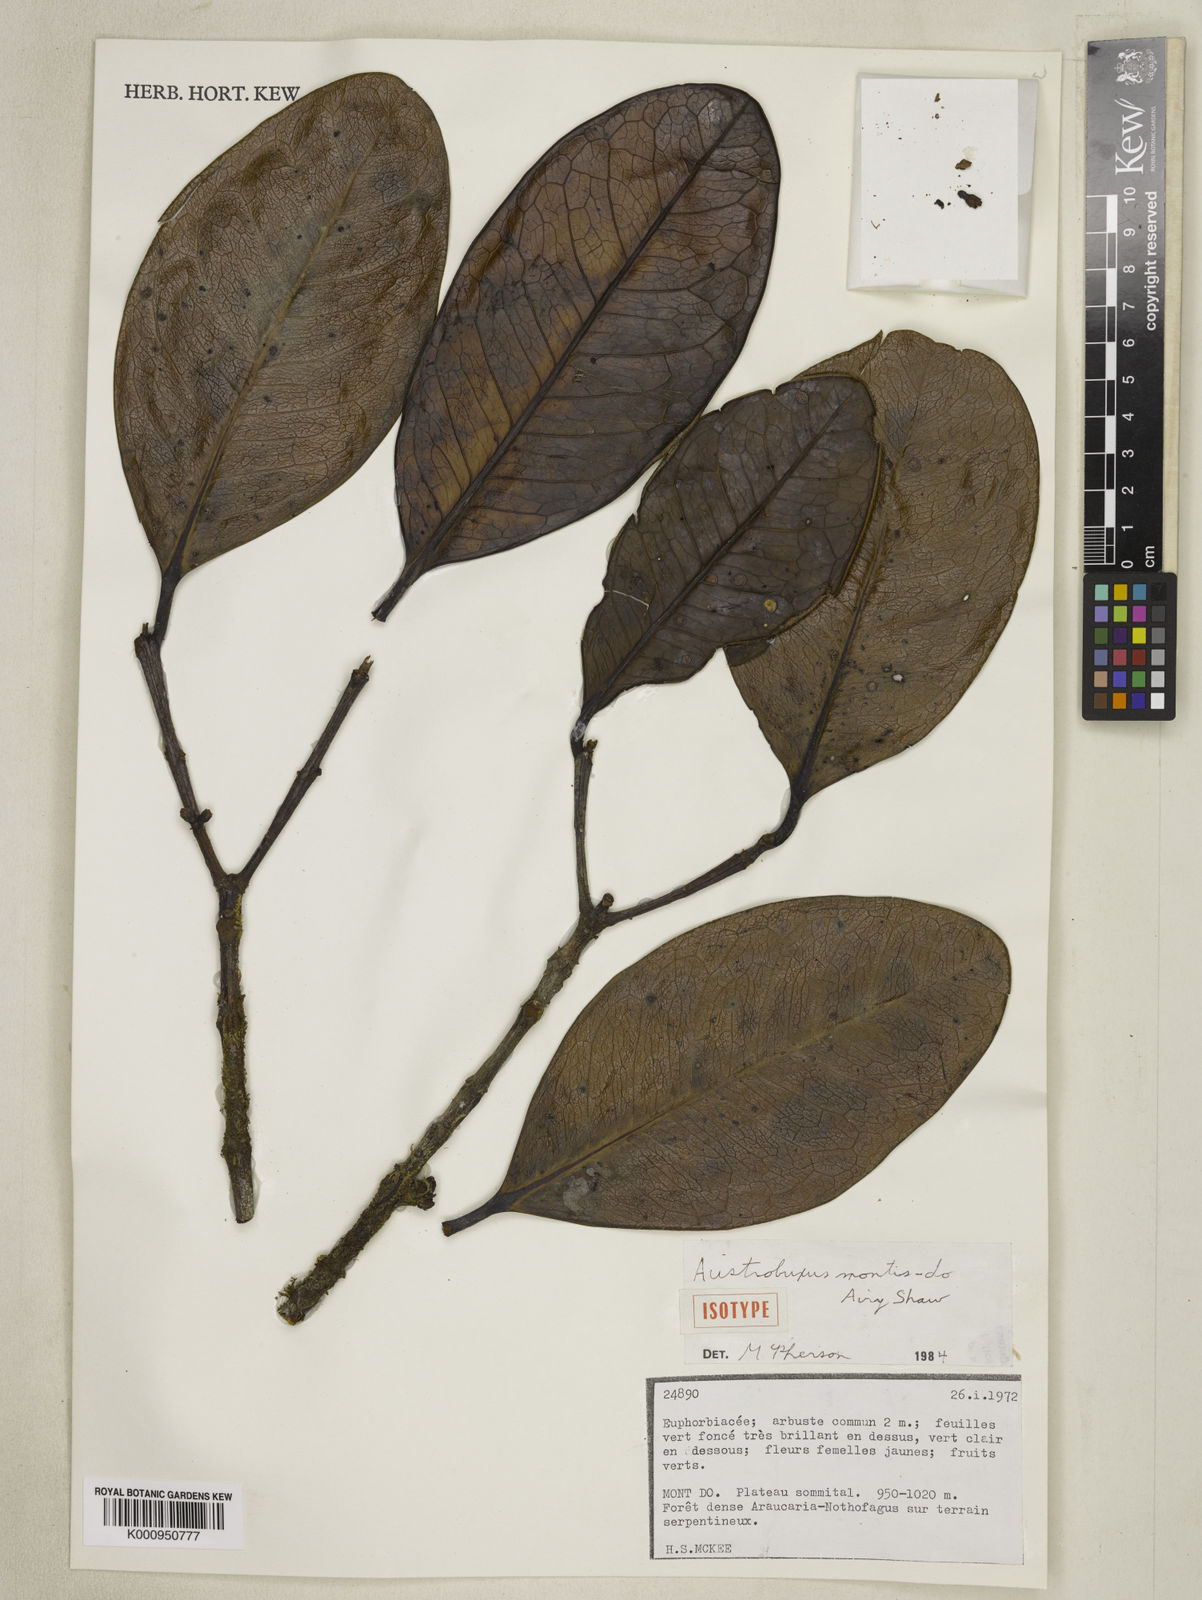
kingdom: Plantae
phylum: Tracheophyta
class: Magnoliopsida
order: Malpighiales
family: Picrodendraceae
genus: Austrobuxus
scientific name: Austrobuxus montis-do
